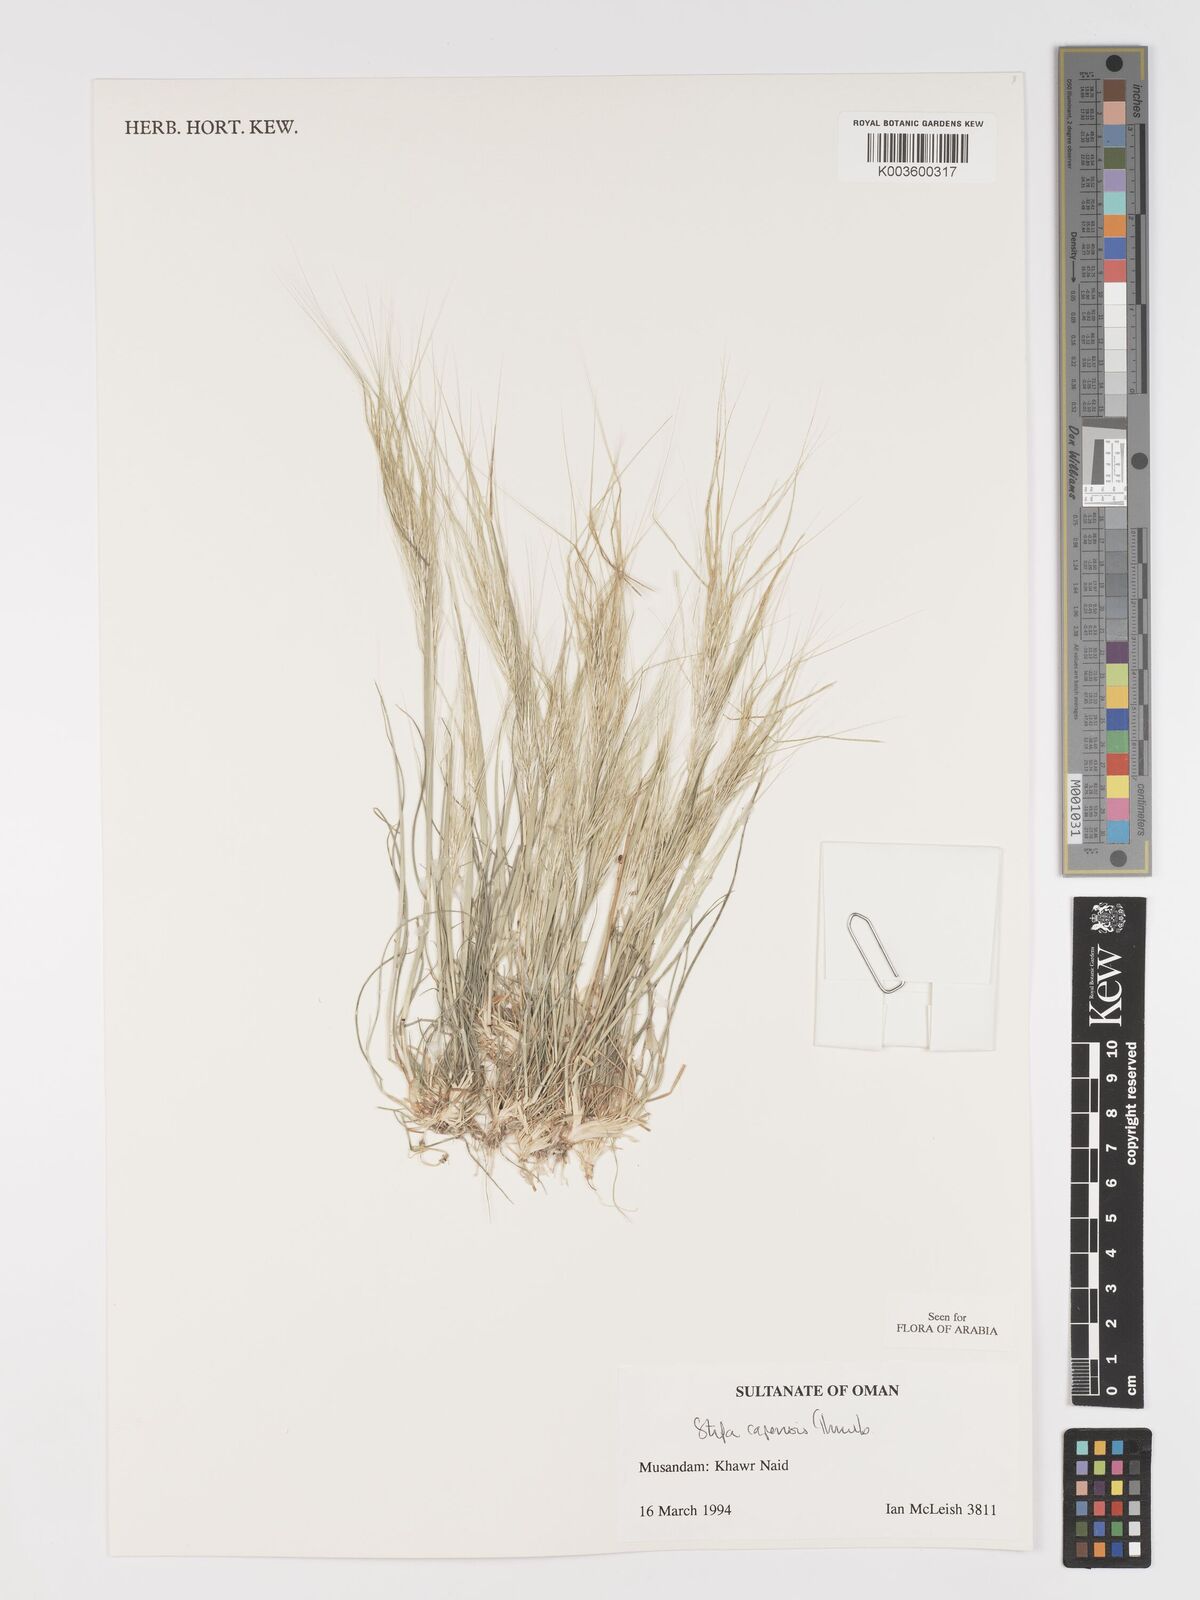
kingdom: Plantae
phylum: Tracheophyta
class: Liliopsida
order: Poales
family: Poaceae
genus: Stipellula
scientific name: Stipellula capensis
